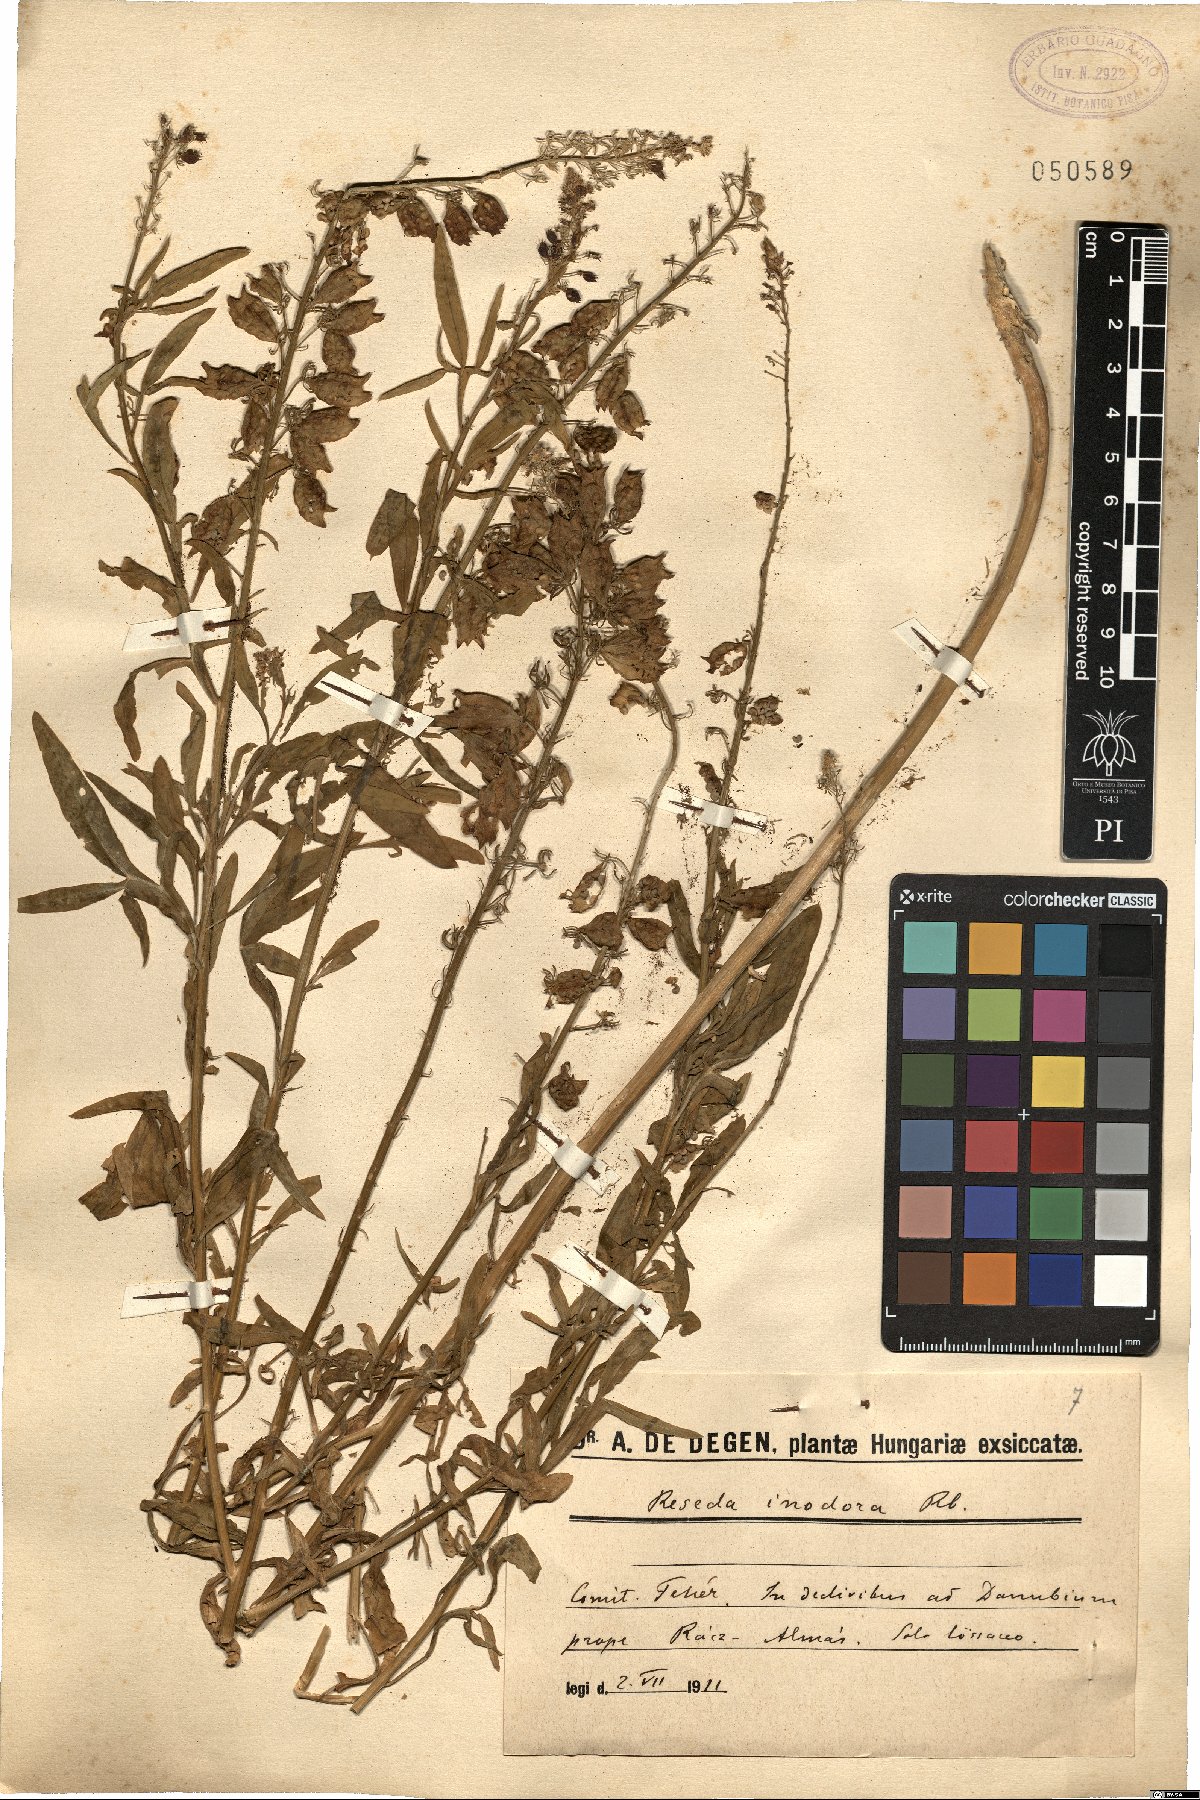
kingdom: Plantae
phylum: Tracheophyta
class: Magnoliopsida
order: Brassicales
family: Resedaceae
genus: Reseda
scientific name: Reseda inodora
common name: Scentless mignonette
